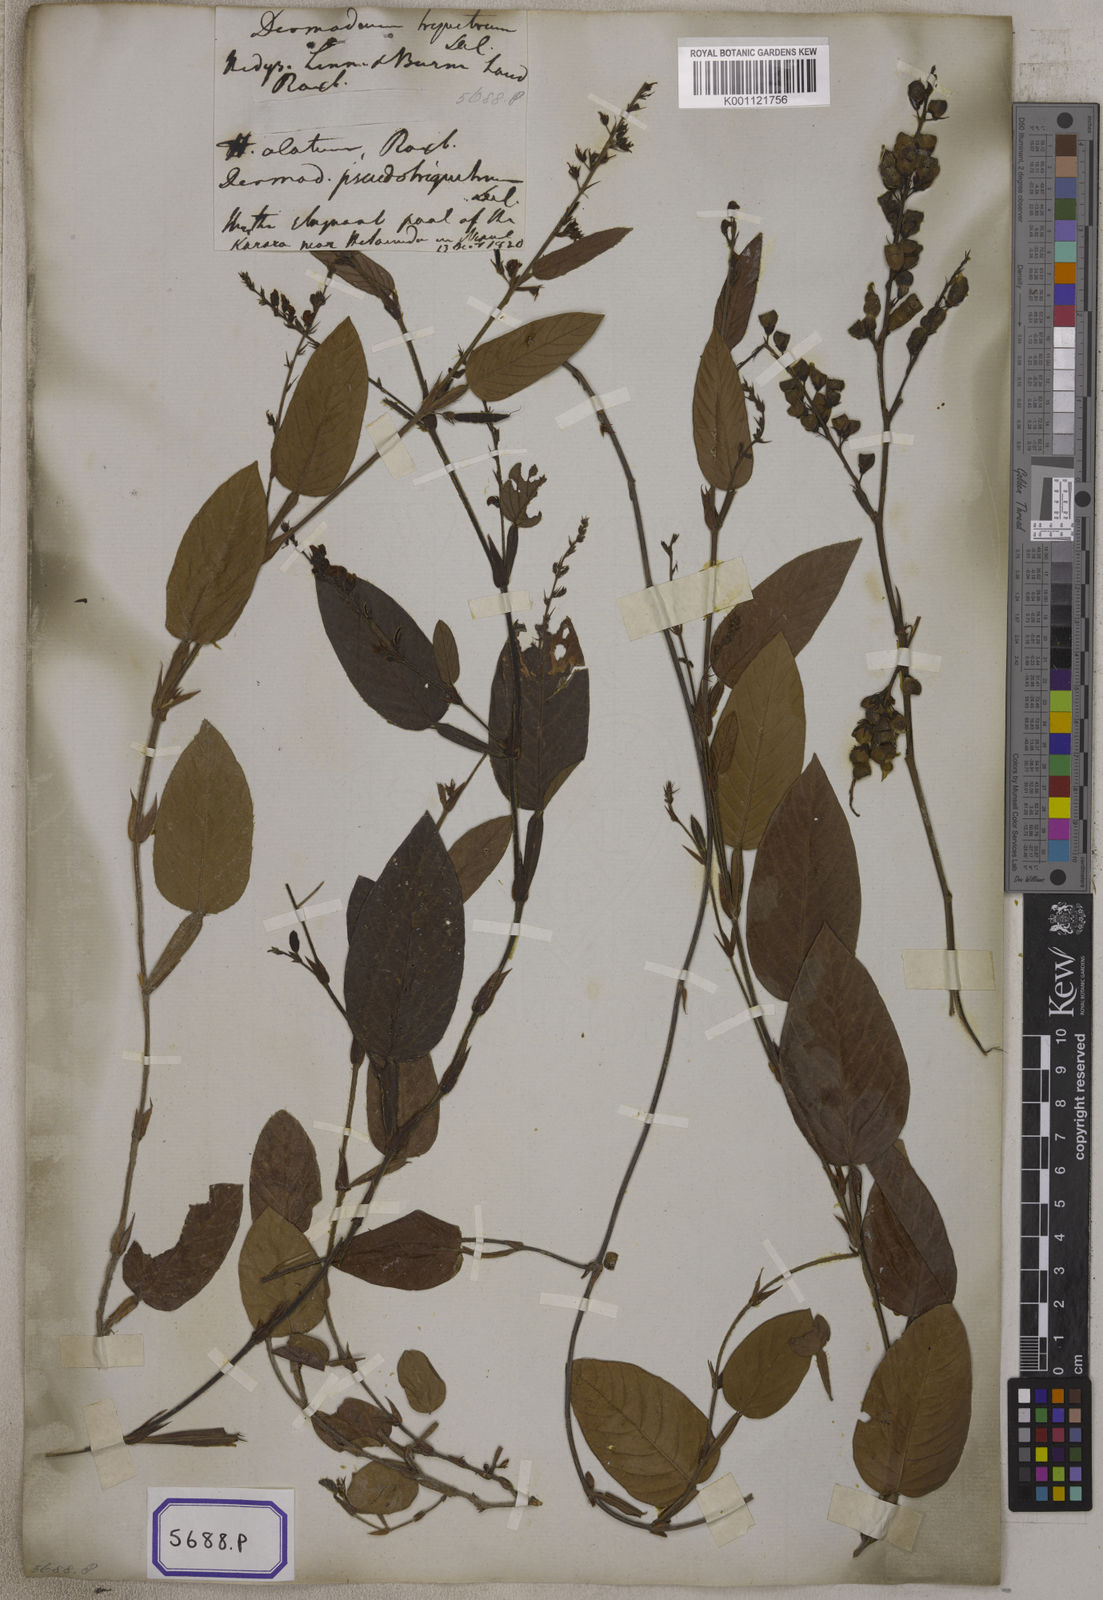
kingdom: Plantae
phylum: Tracheophyta
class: Magnoliopsida
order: Fabales
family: Fabaceae
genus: Tadehagi
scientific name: Tadehagi triquetrum
